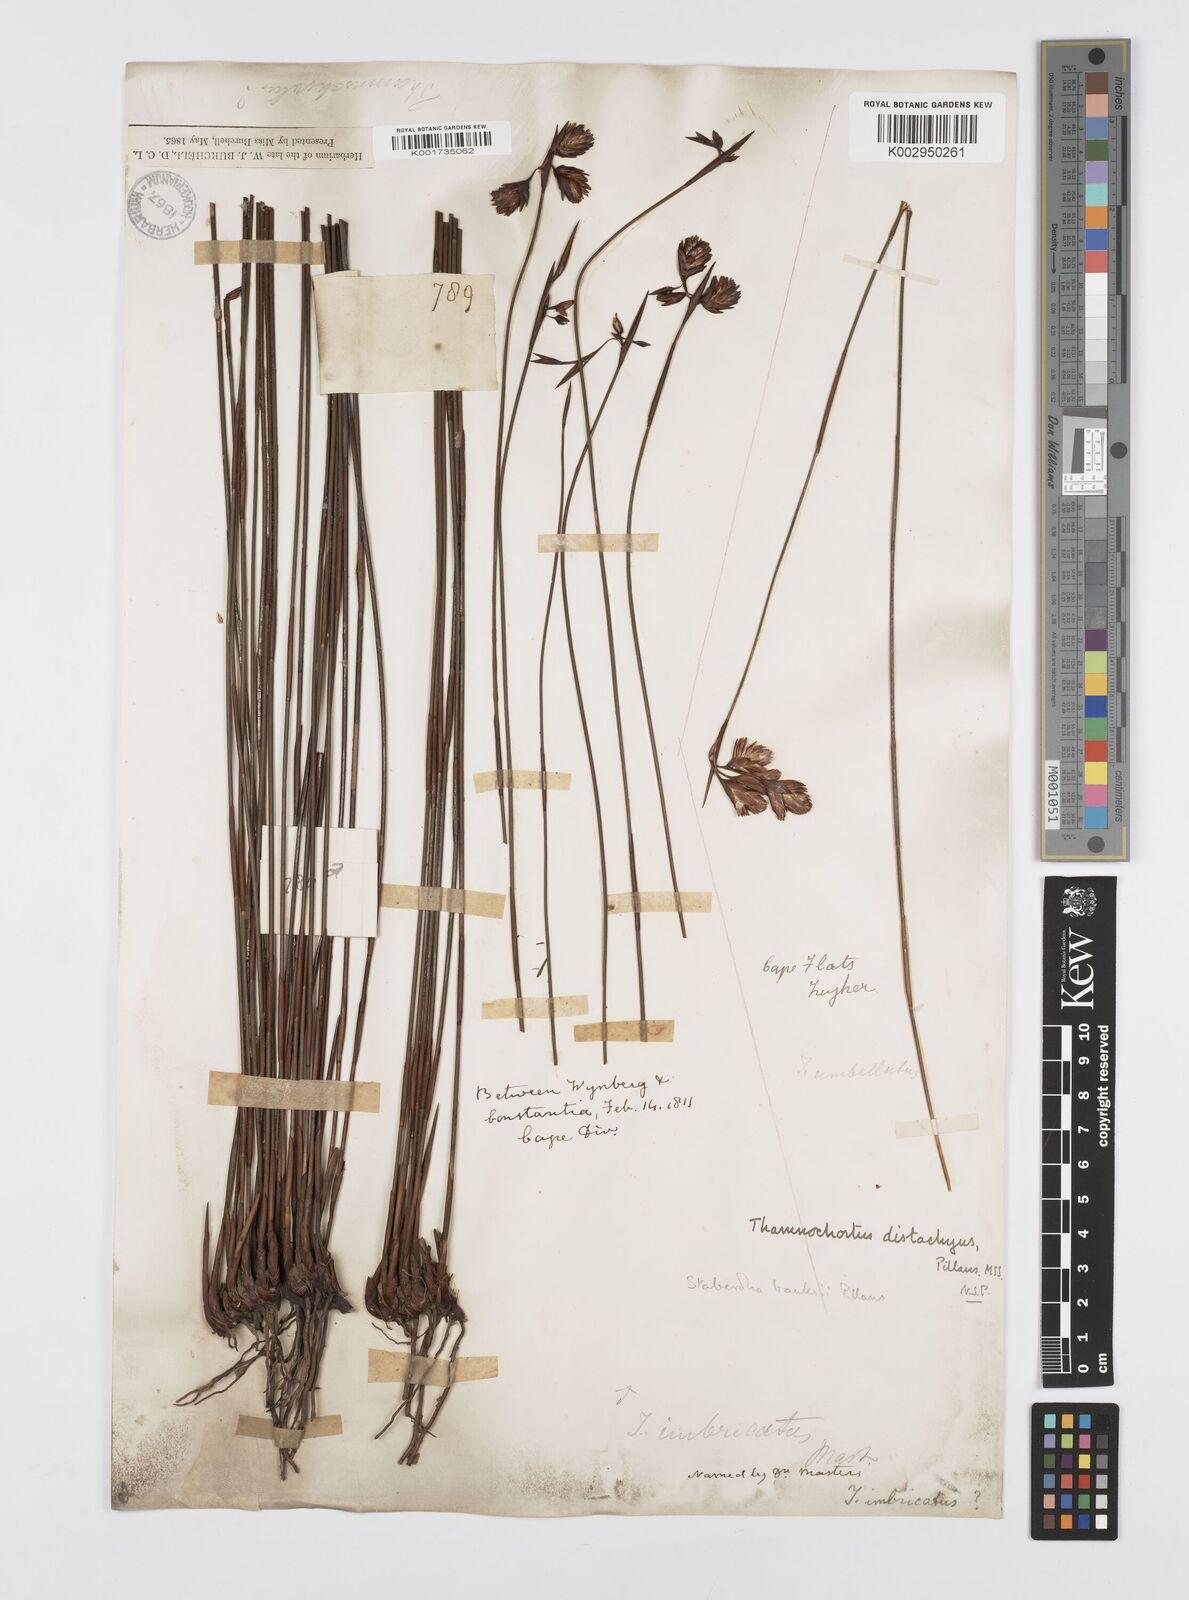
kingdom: Plantae
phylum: Tracheophyta
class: Liliopsida
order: Poales
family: Restionaceae
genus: Staberoha
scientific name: Staberoha banksii
